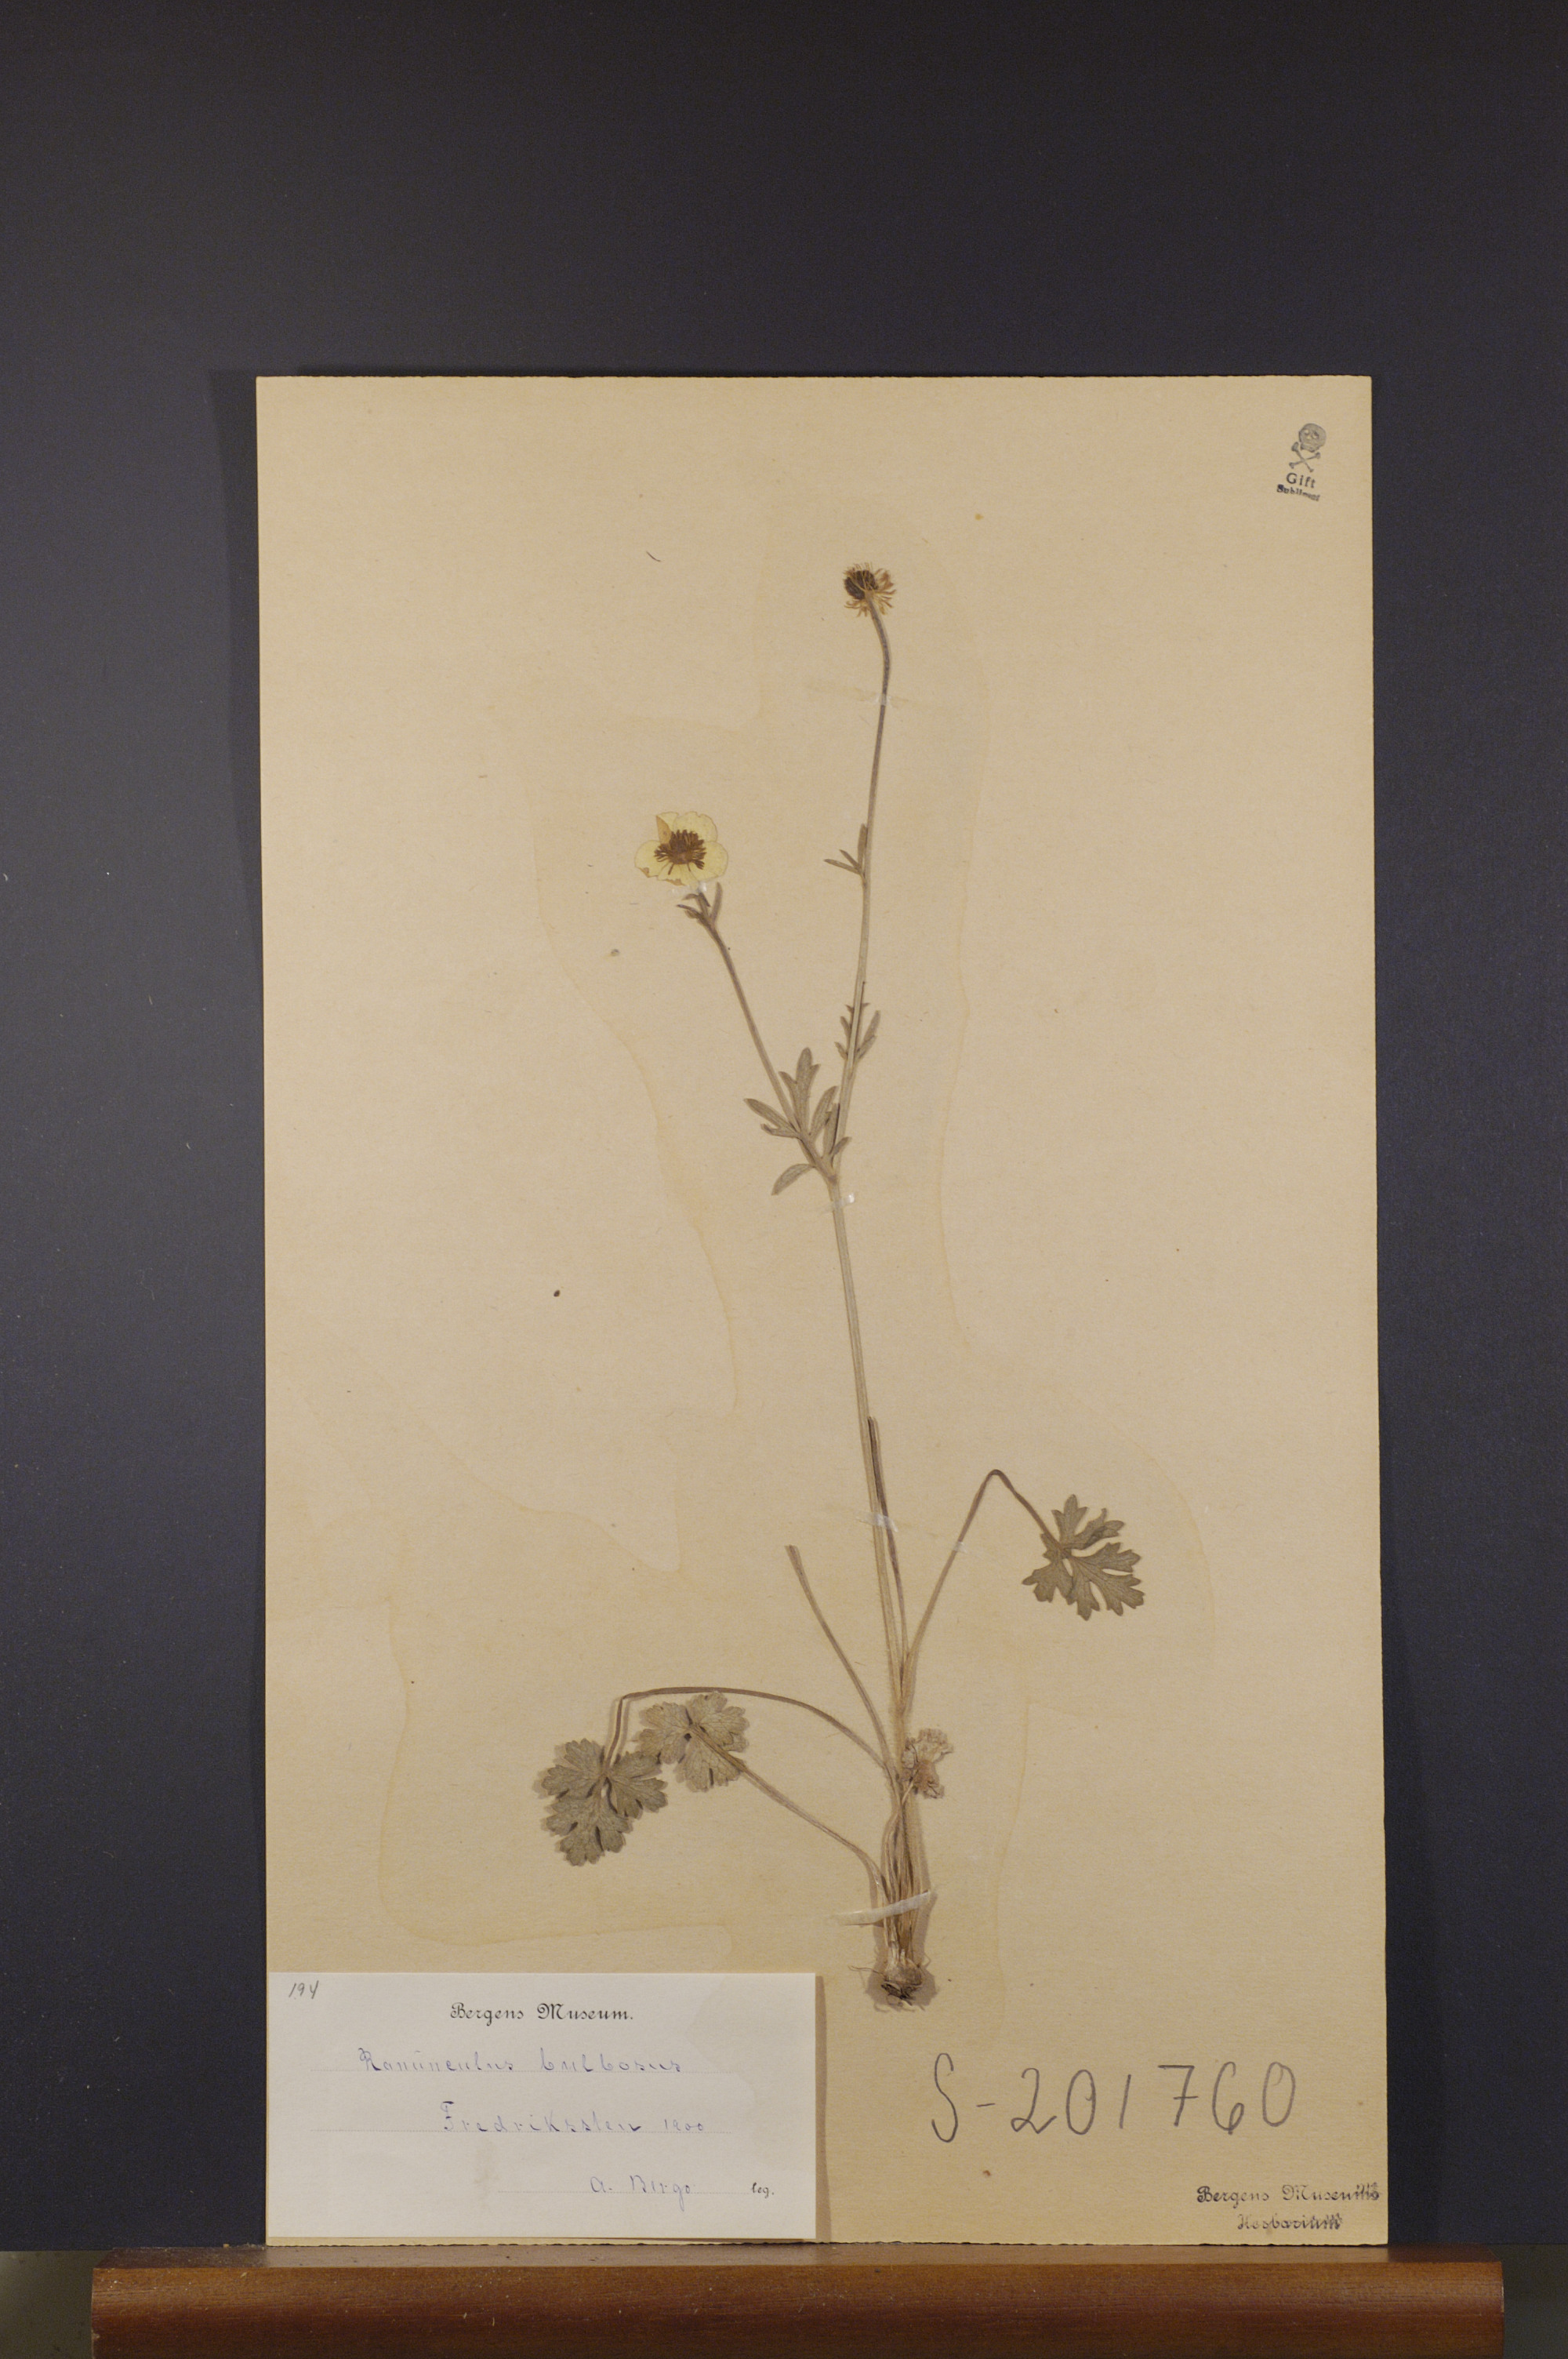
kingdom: Plantae
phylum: Tracheophyta
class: Magnoliopsida
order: Ranunculales
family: Ranunculaceae
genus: Ranunculus
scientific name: Ranunculus bulbosus
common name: Bulbous buttercup
